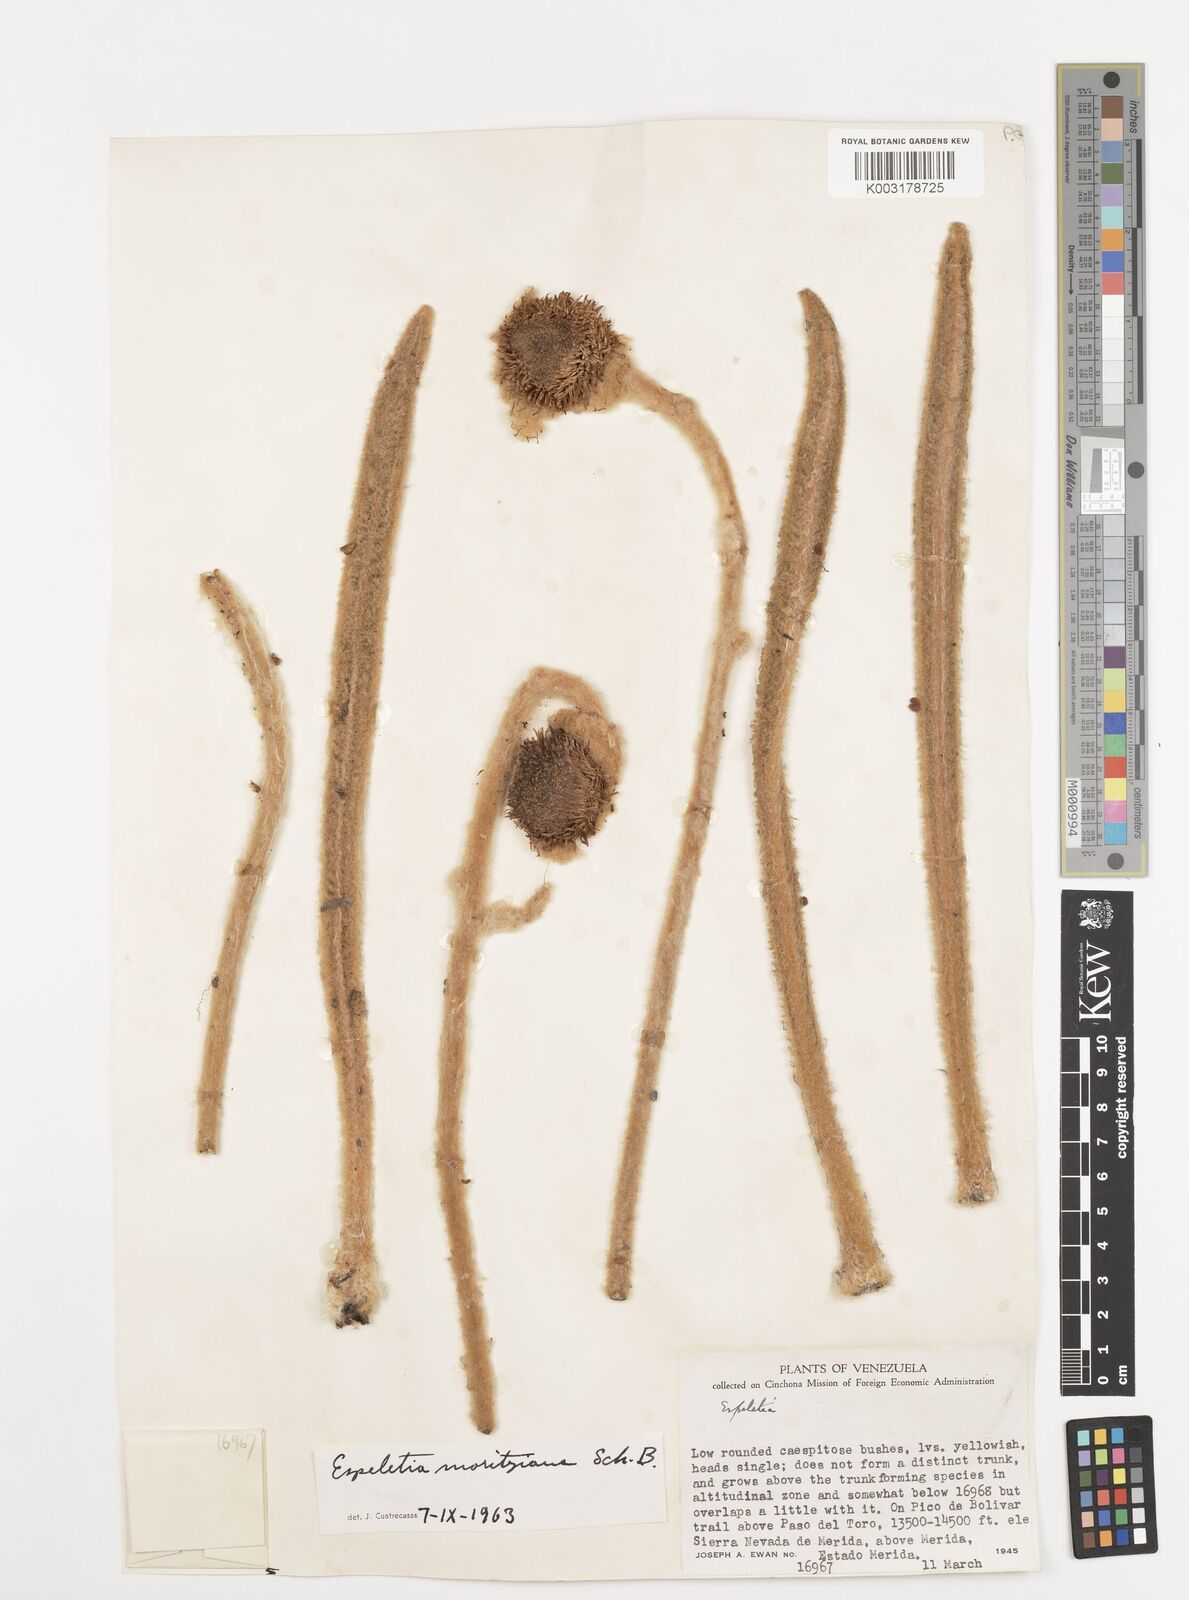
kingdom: Plantae
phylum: Tracheophyta
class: Magnoliopsida
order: Asterales
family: Asteraceae
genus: Espeletia
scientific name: Espeletia moritziana
